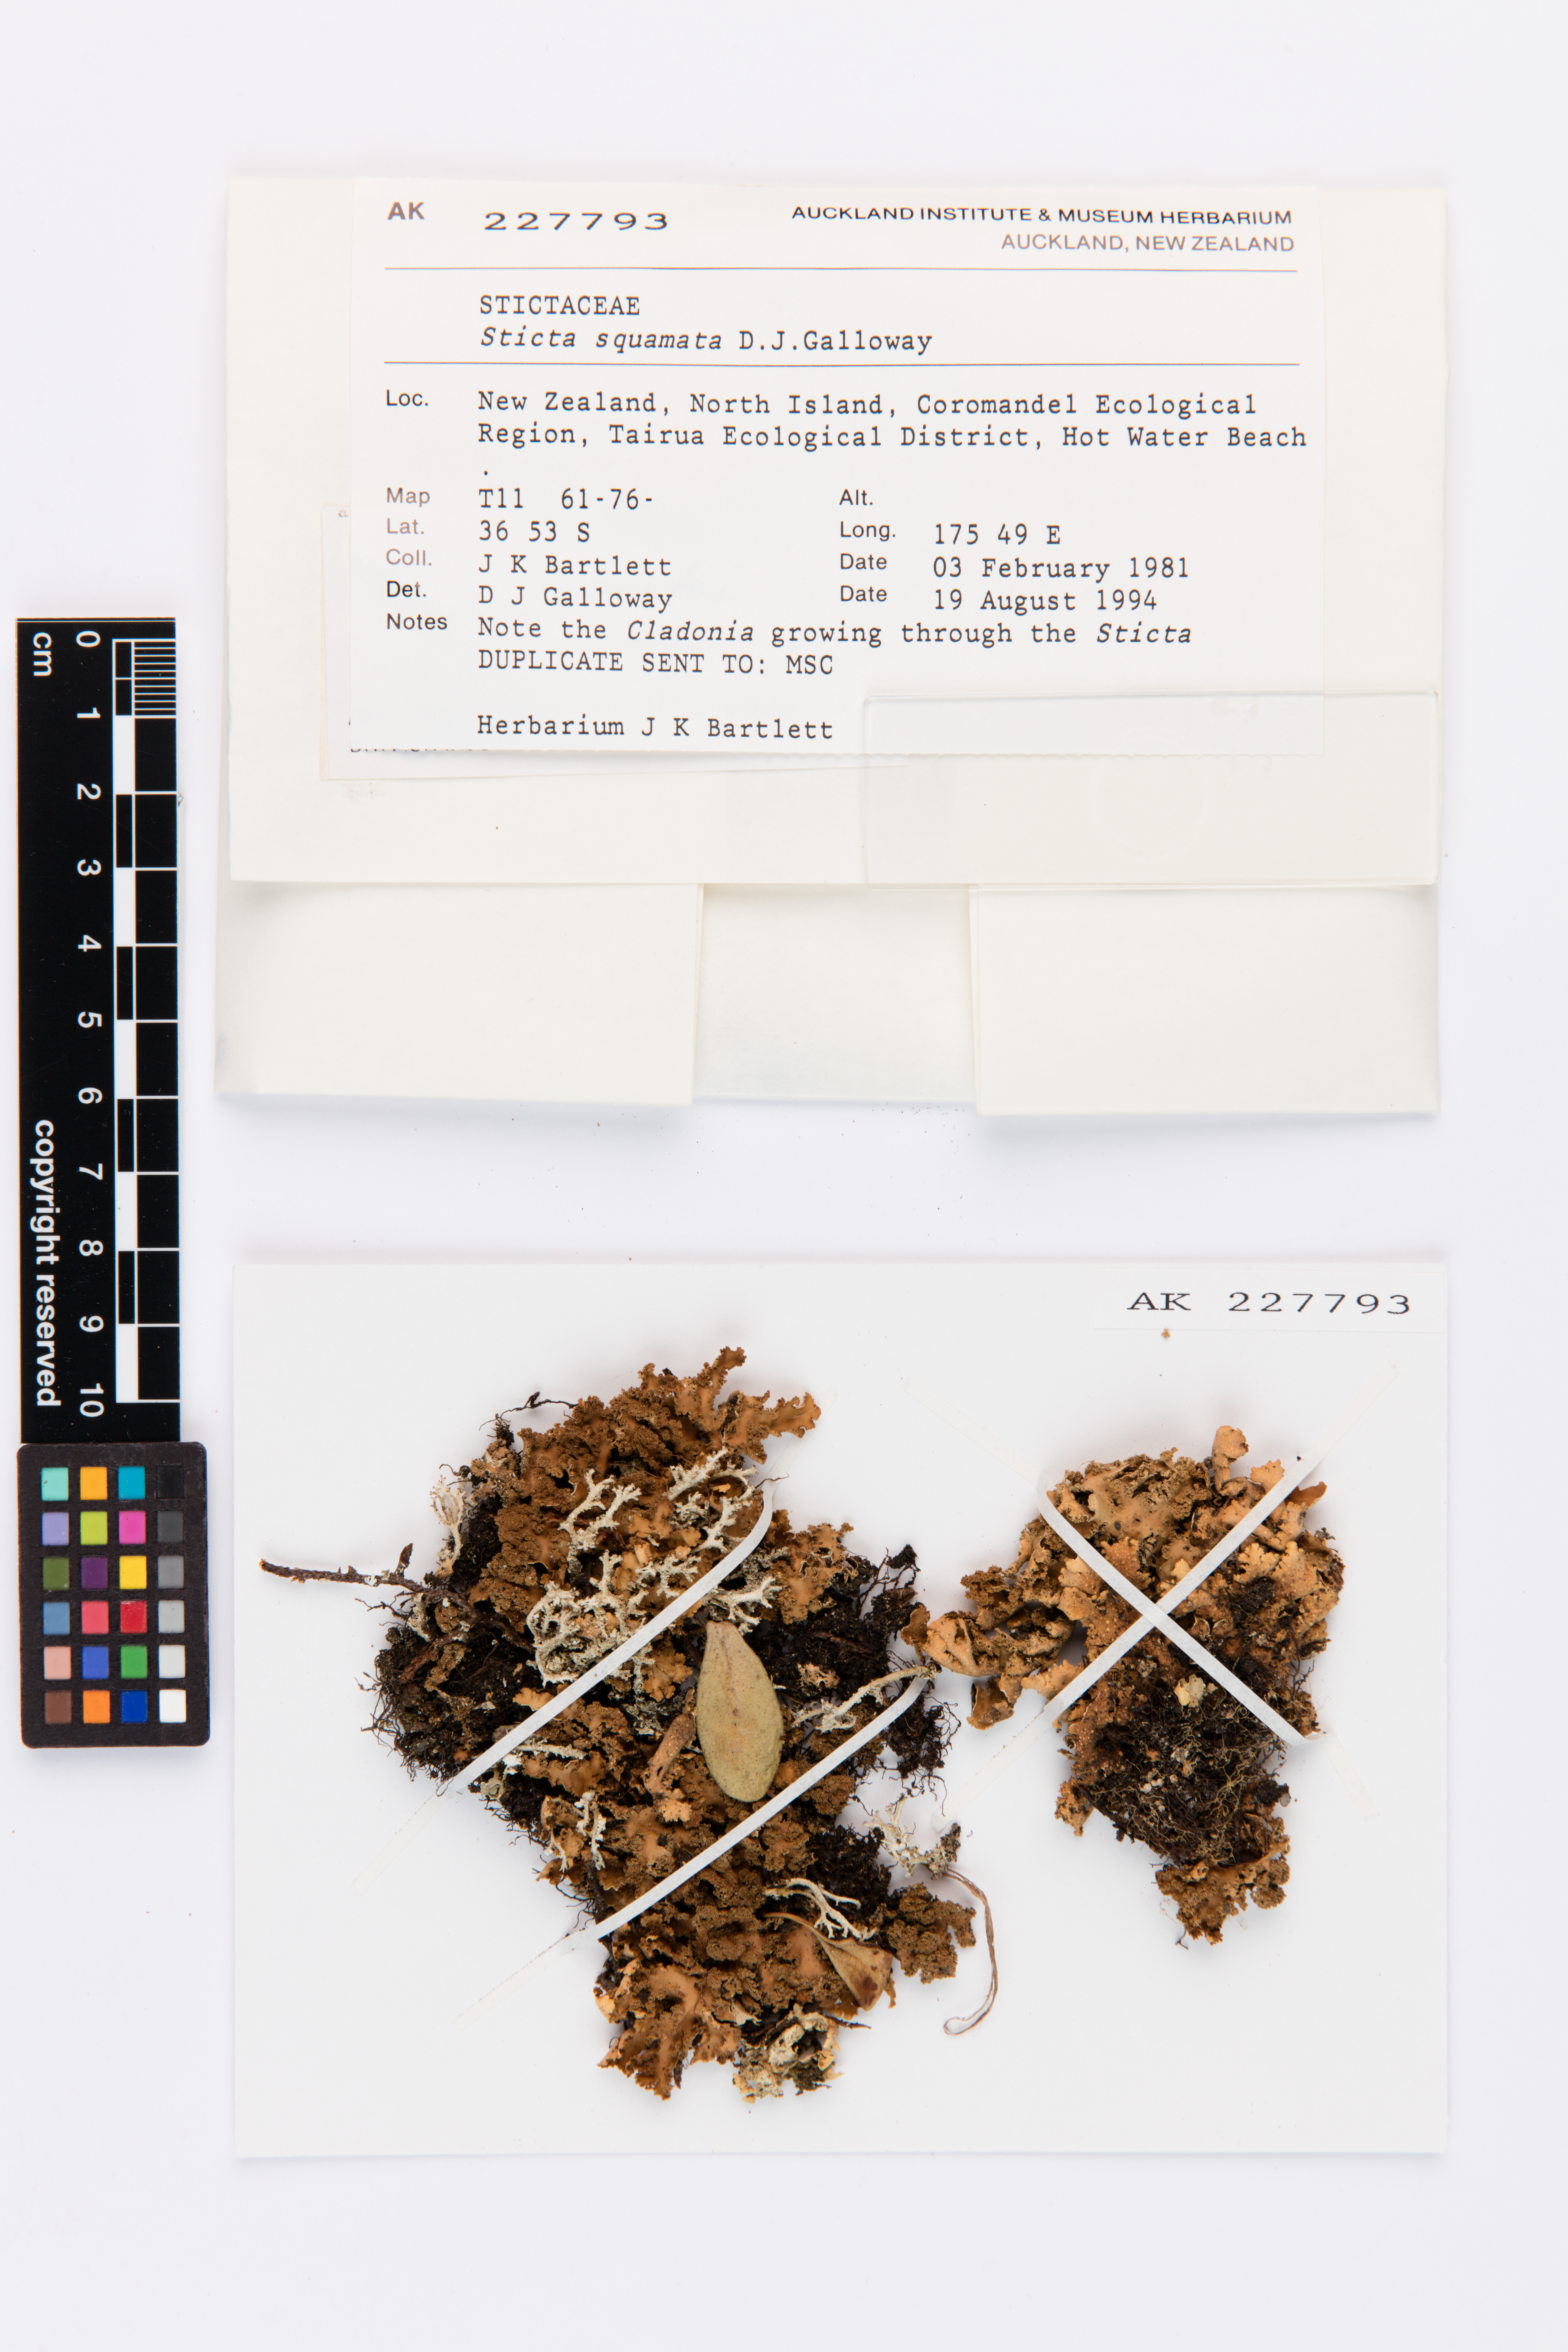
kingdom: Fungi
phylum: Ascomycota
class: Lecanoromycetes
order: Peltigerales
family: Lobariaceae
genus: Sticta
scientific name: Sticta squamata
